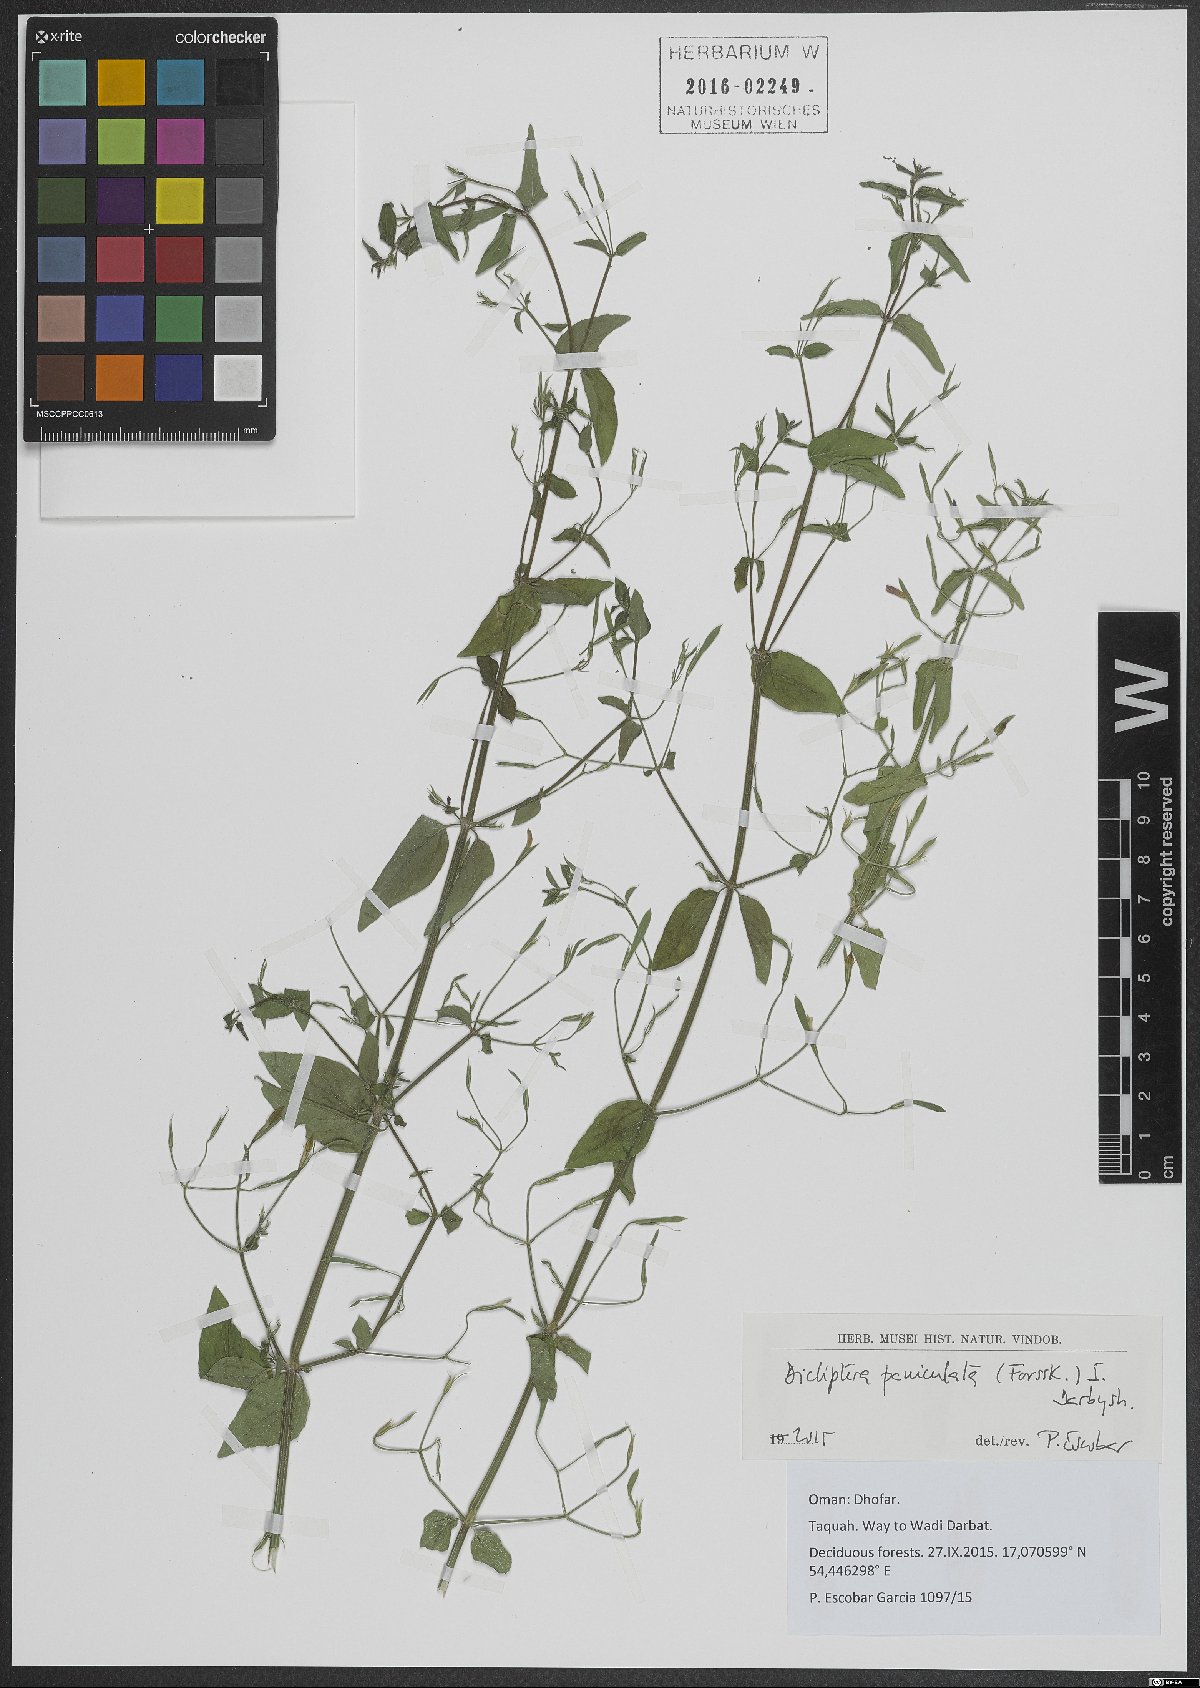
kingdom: Plantae
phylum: Tracheophyta
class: Magnoliopsida
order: Lamiales
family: Acanthaceae
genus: Dicliptera
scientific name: Dicliptera paniculata
